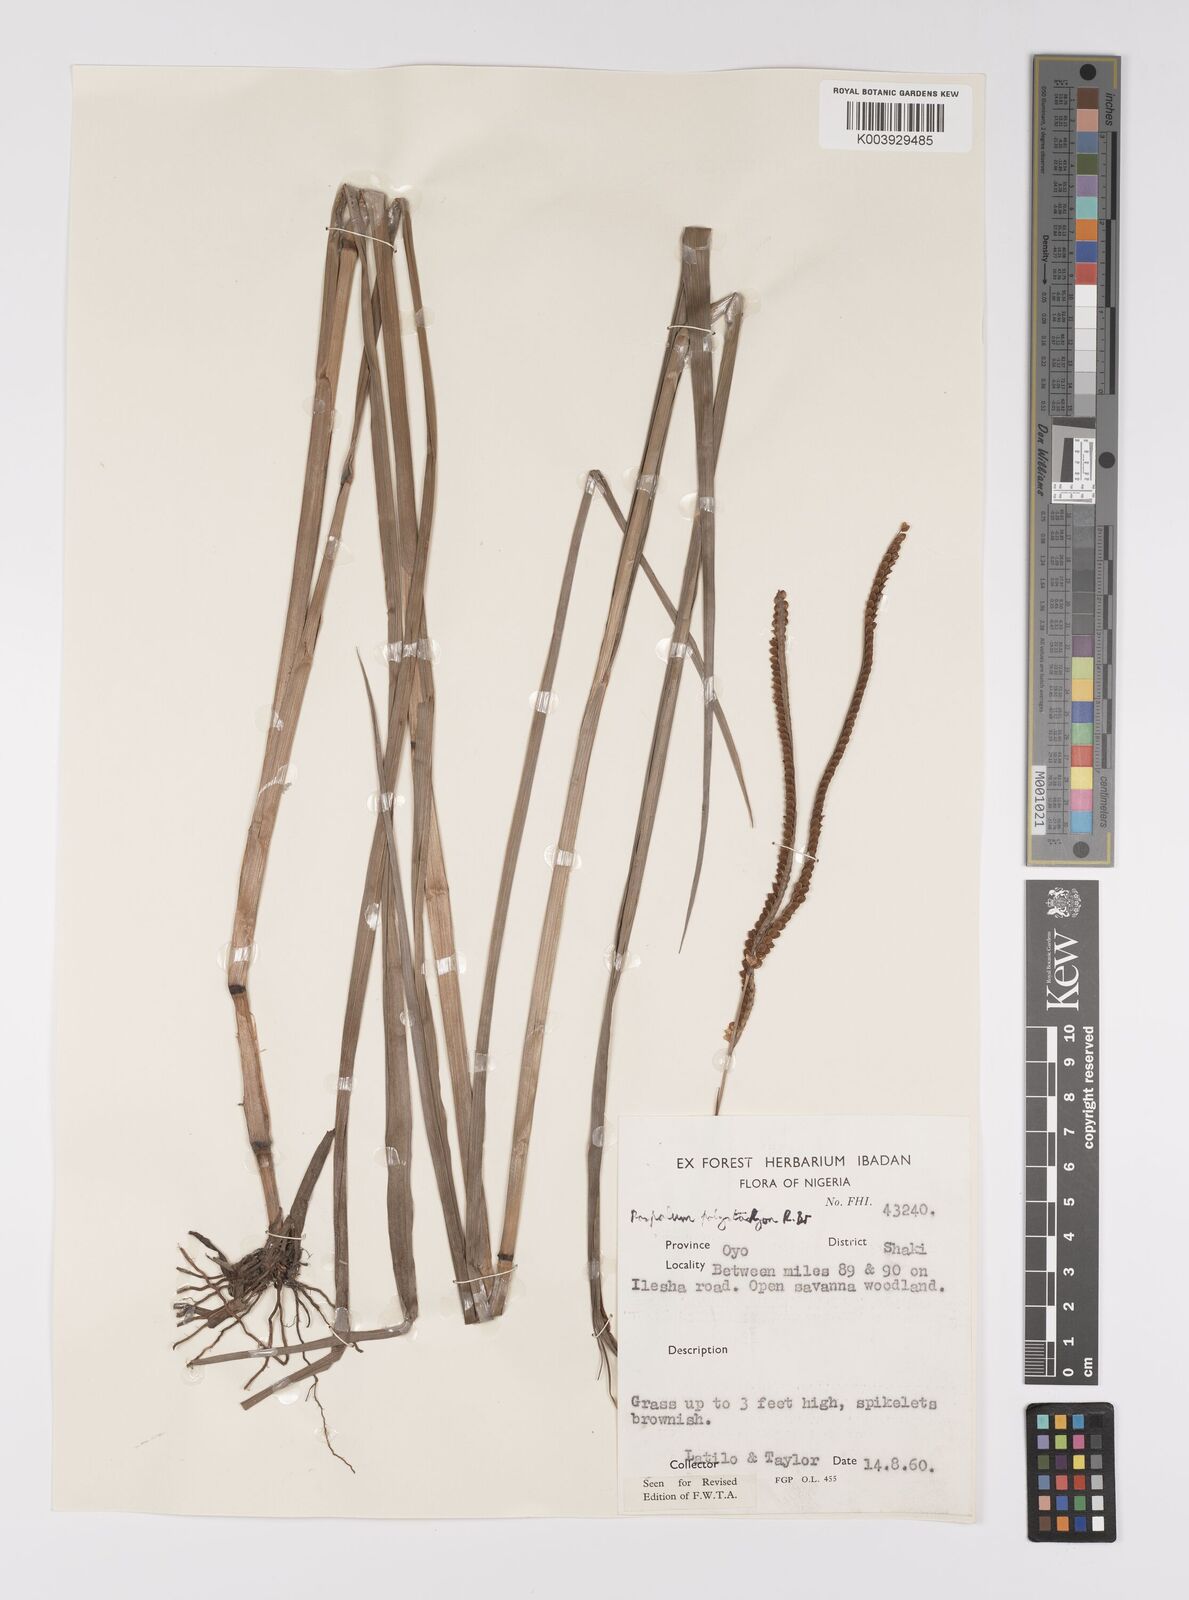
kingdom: Plantae
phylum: Tracheophyta
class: Liliopsida
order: Poales
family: Poaceae
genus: Paspalum
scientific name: Paspalum scrobiculatum
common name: Kodo millet
